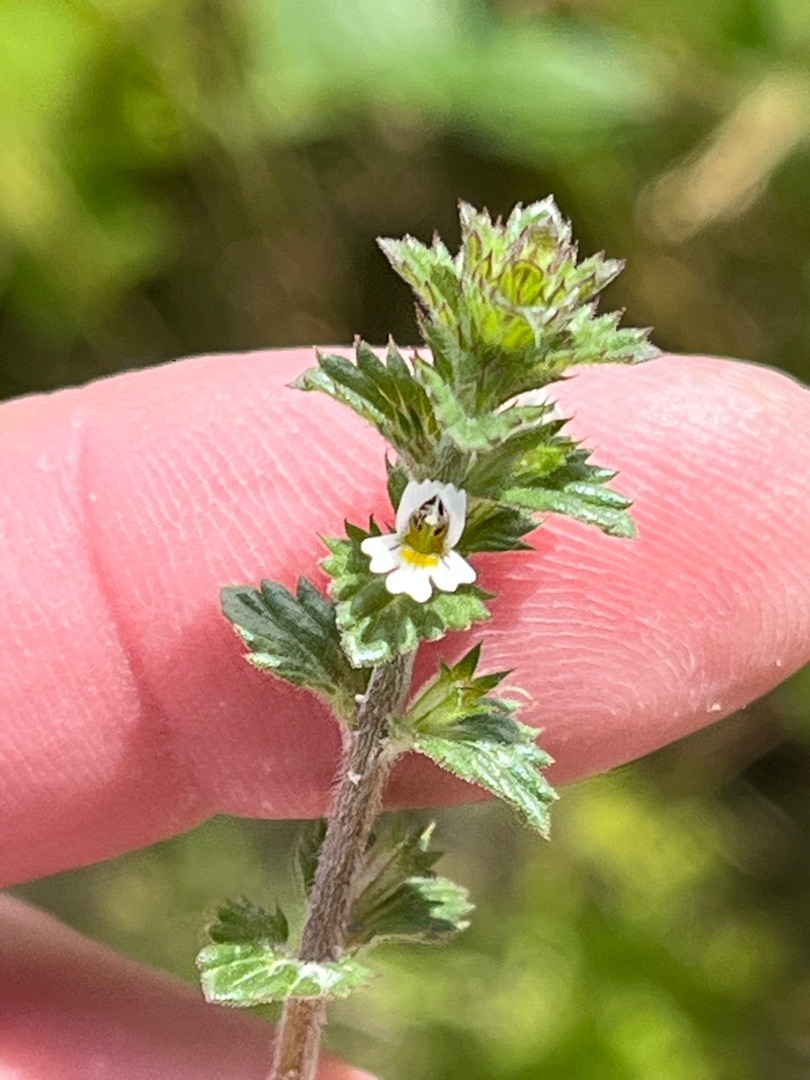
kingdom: Plantae
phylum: Tracheophyta
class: Magnoliopsida
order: Lamiales
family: Orobanchaceae
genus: Euphrasia
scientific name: Euphrasia nemorosa
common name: Kort øjentrøst
